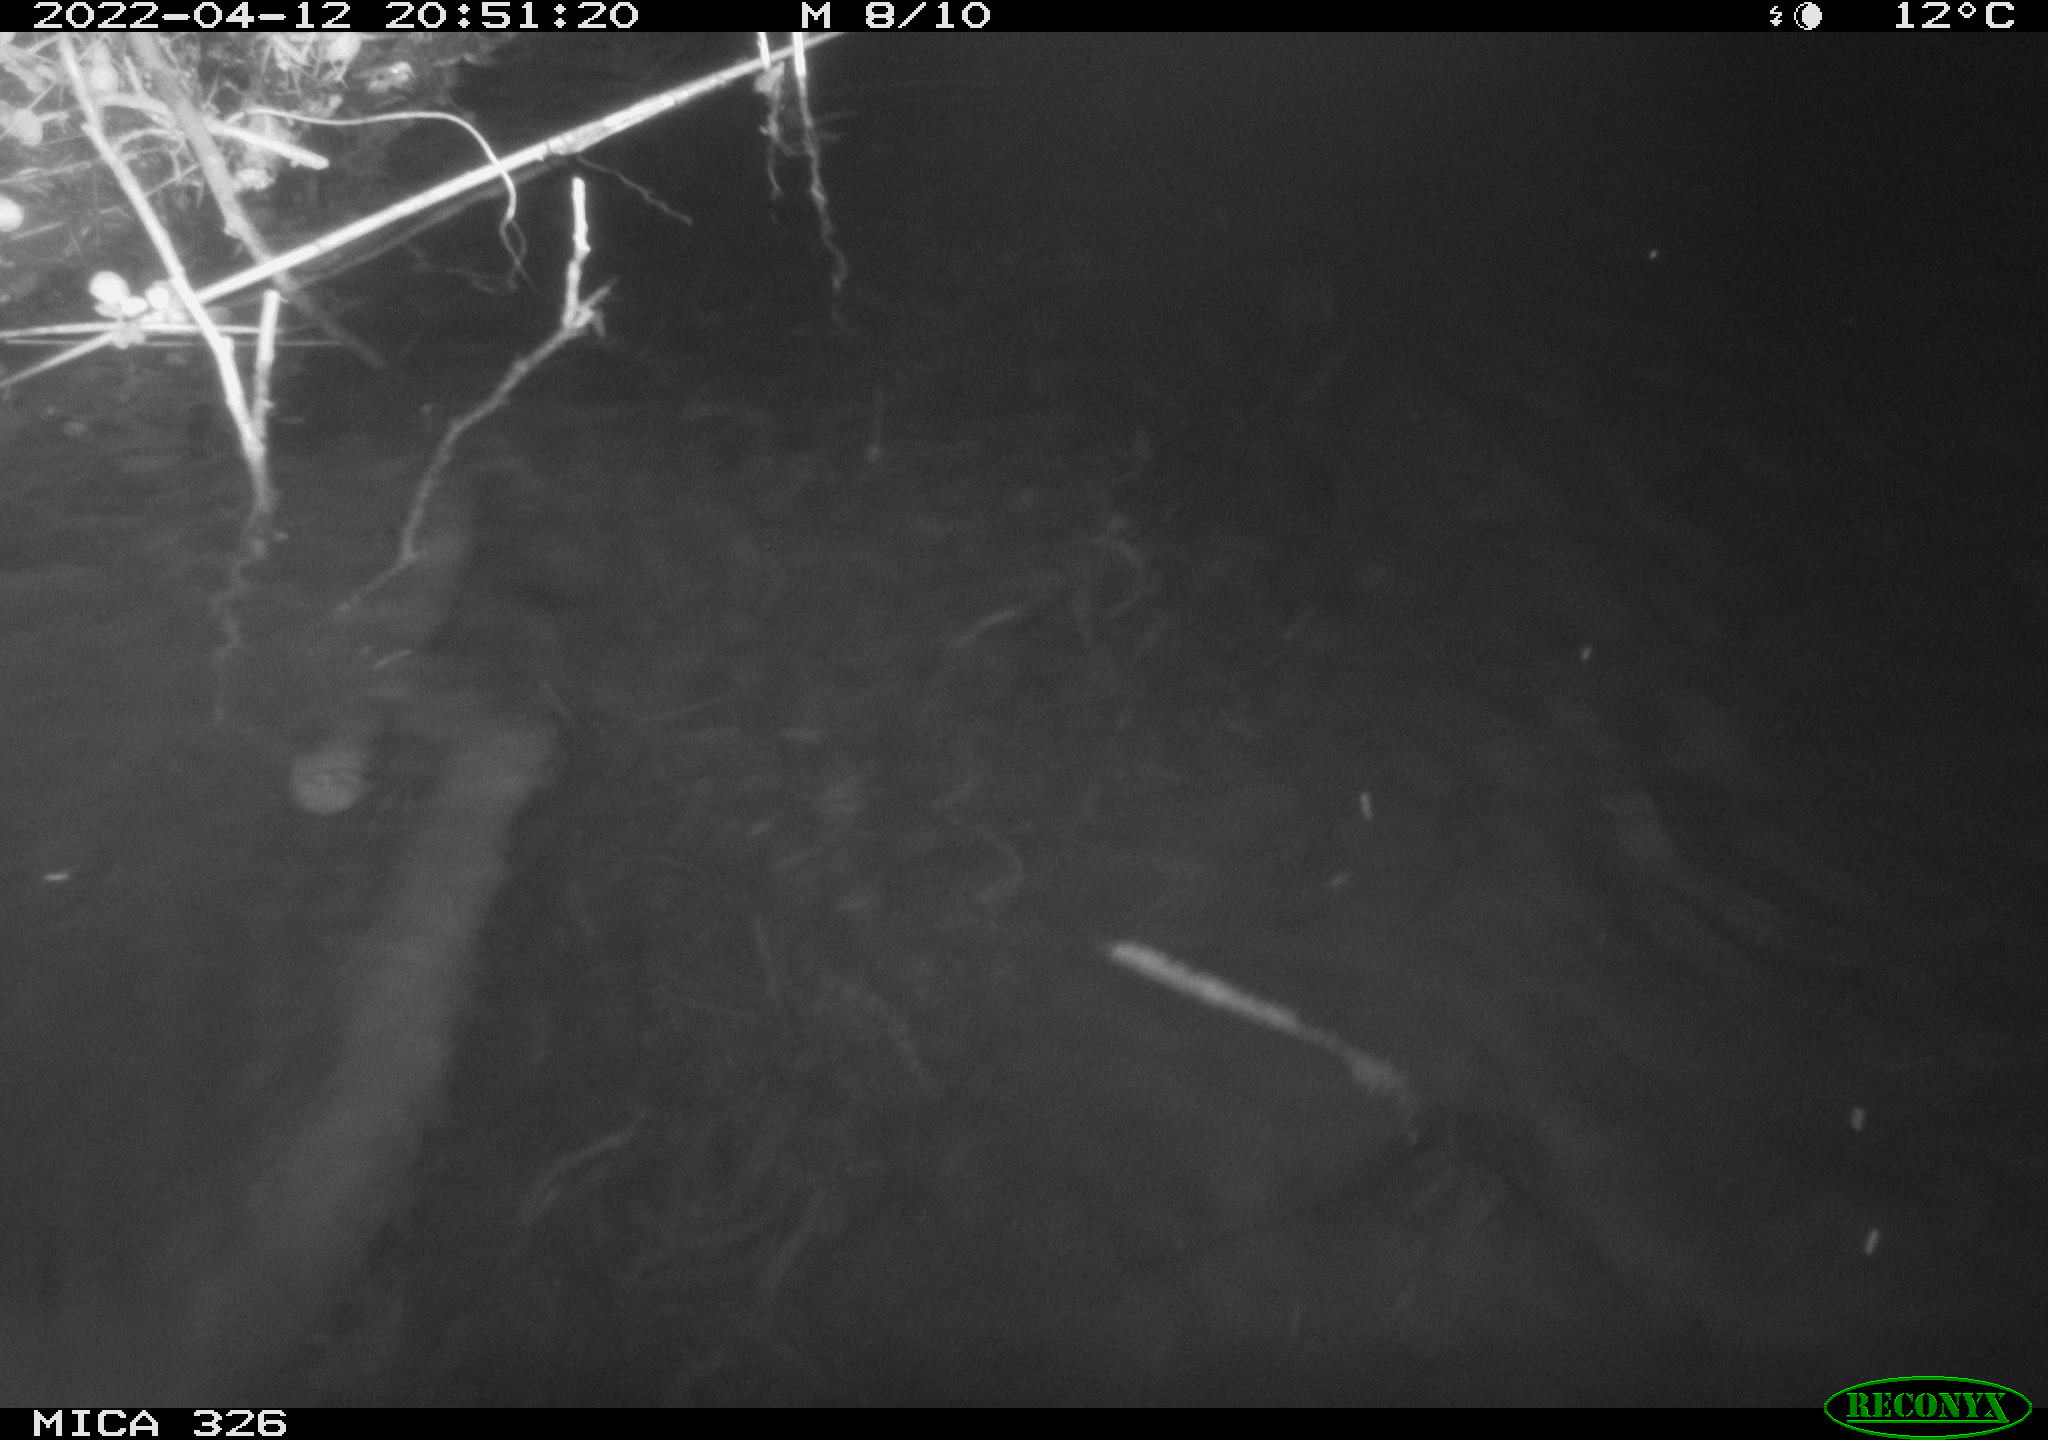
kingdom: Animalia
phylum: Chordata
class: Mammalia
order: Rodentia
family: Cricetidae
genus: Ondatra
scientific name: Ondatra zibethicus
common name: Muskrat
